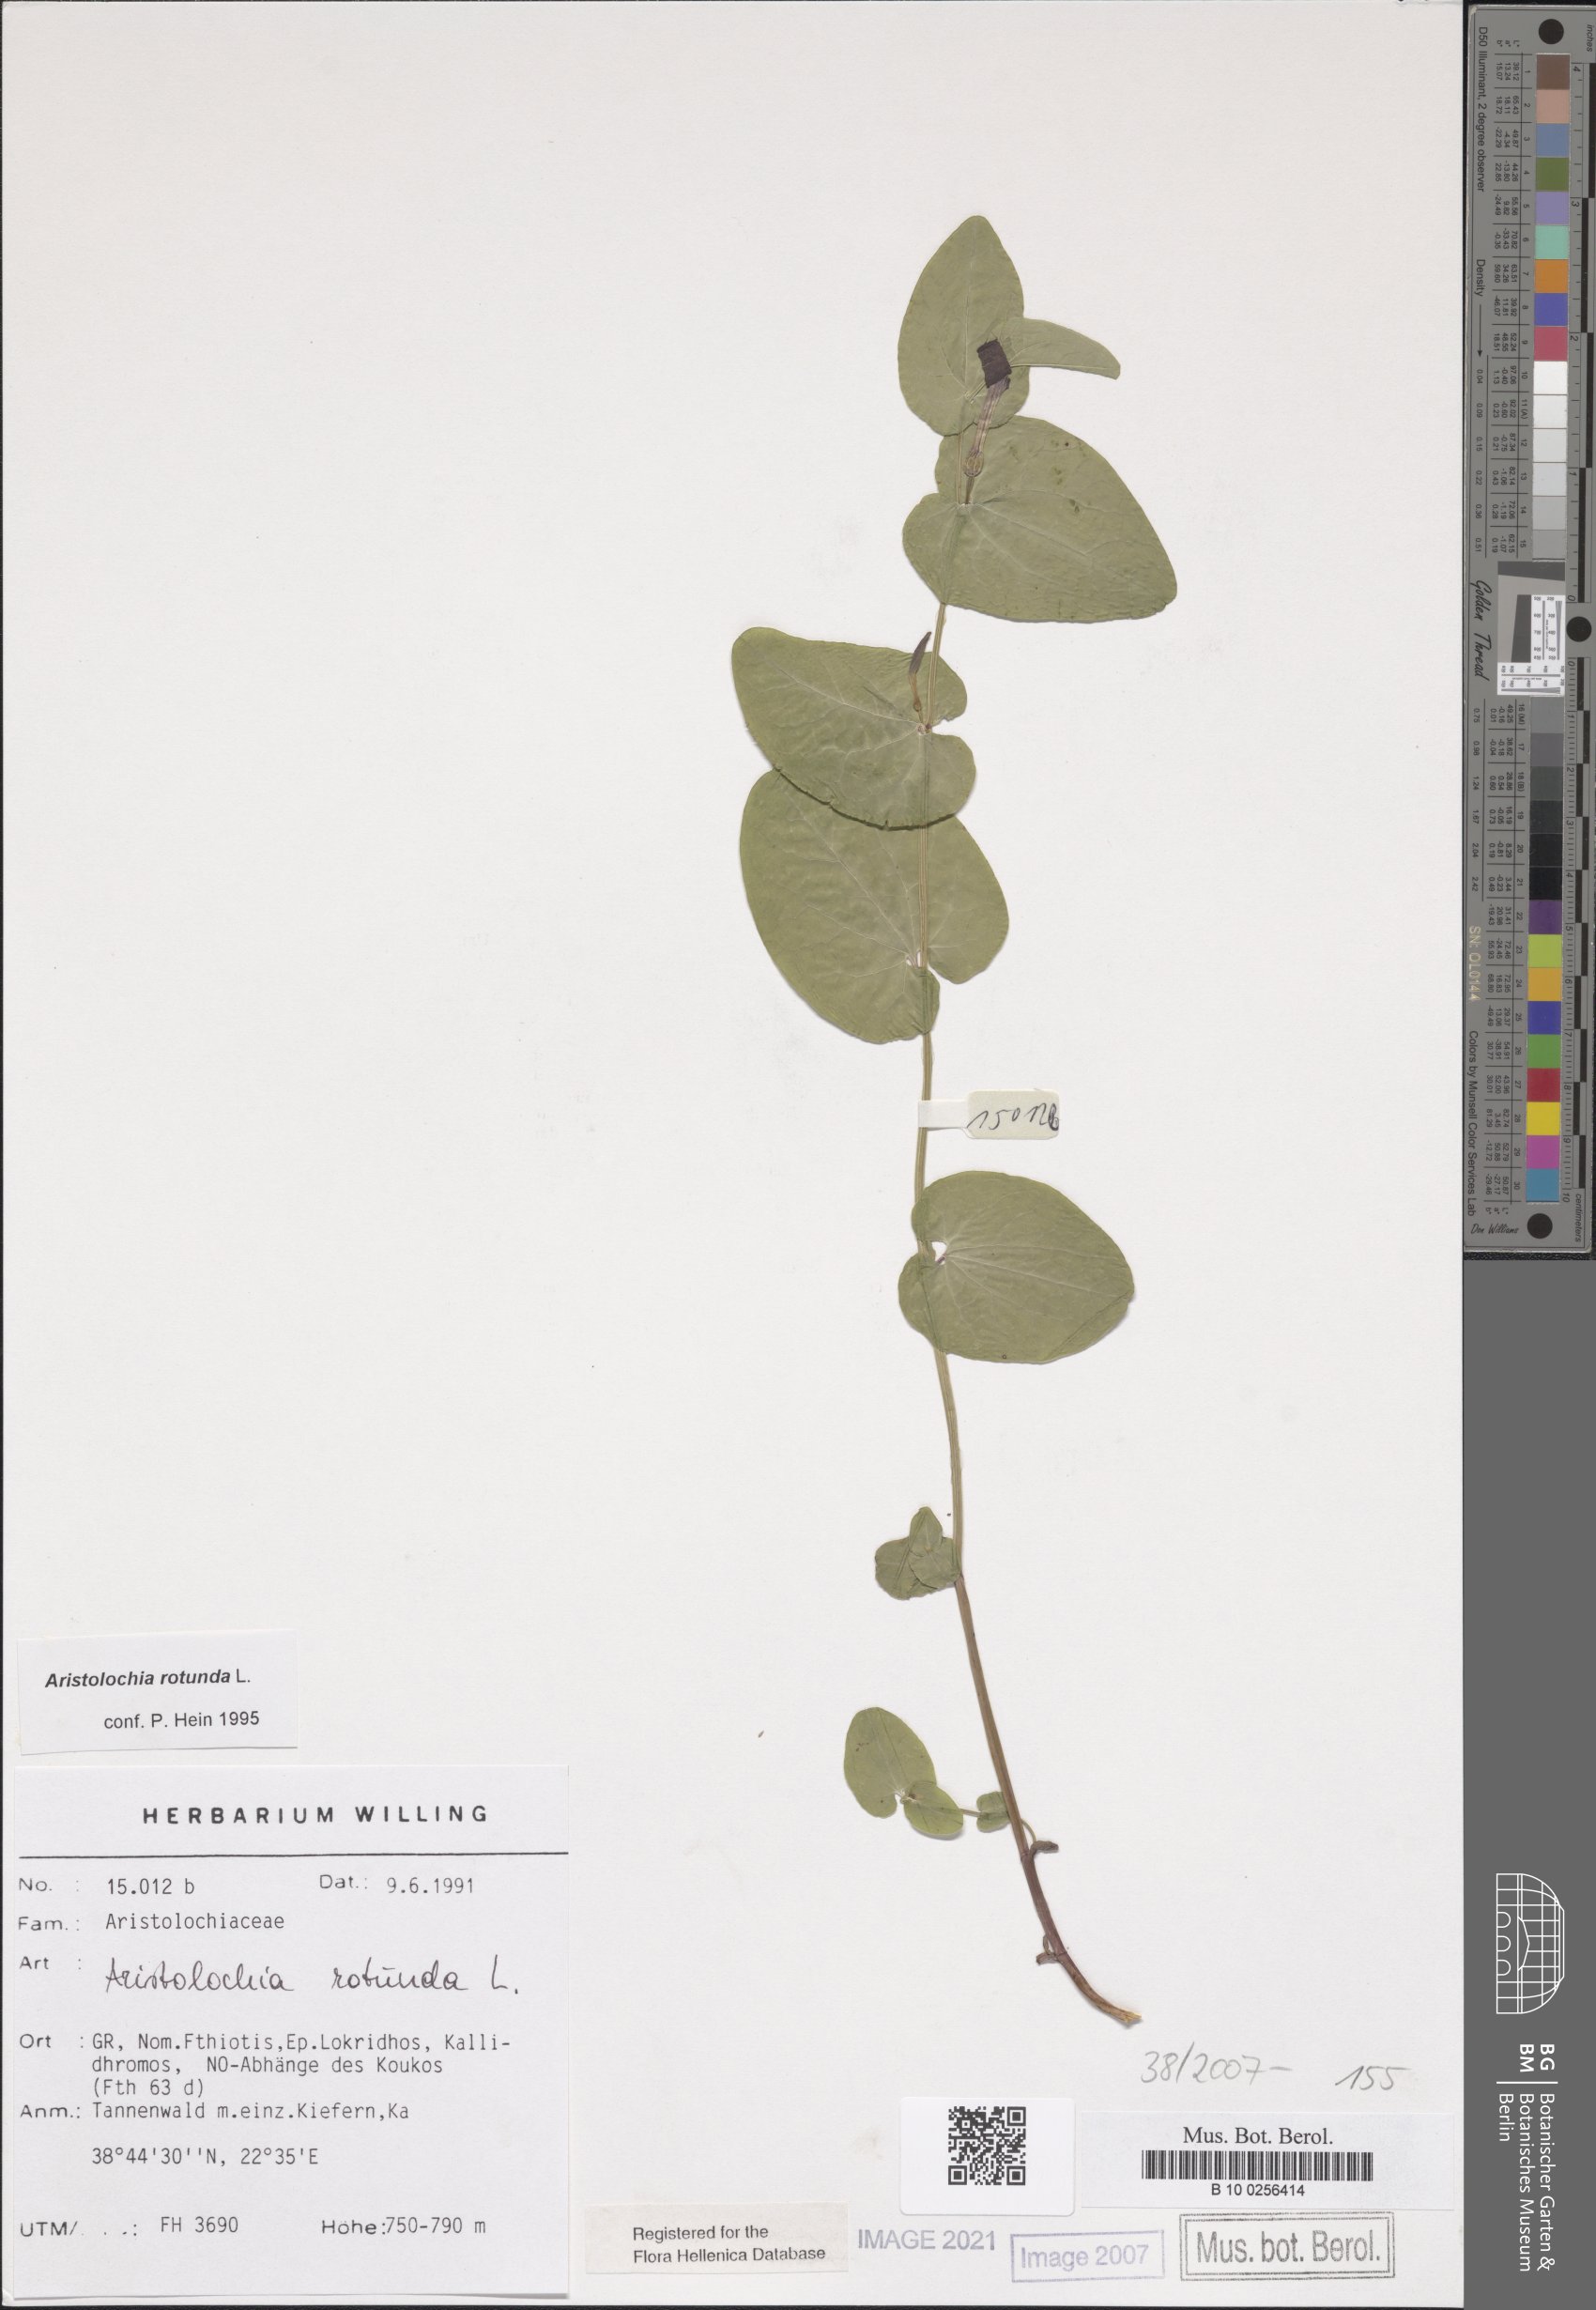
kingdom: Plantae
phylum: Tracheophyta
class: Magnoliopsida
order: Piperales
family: Aristolochiaceae
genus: Aristolochia
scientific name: Aristolochia rotunda
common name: Smearwort
